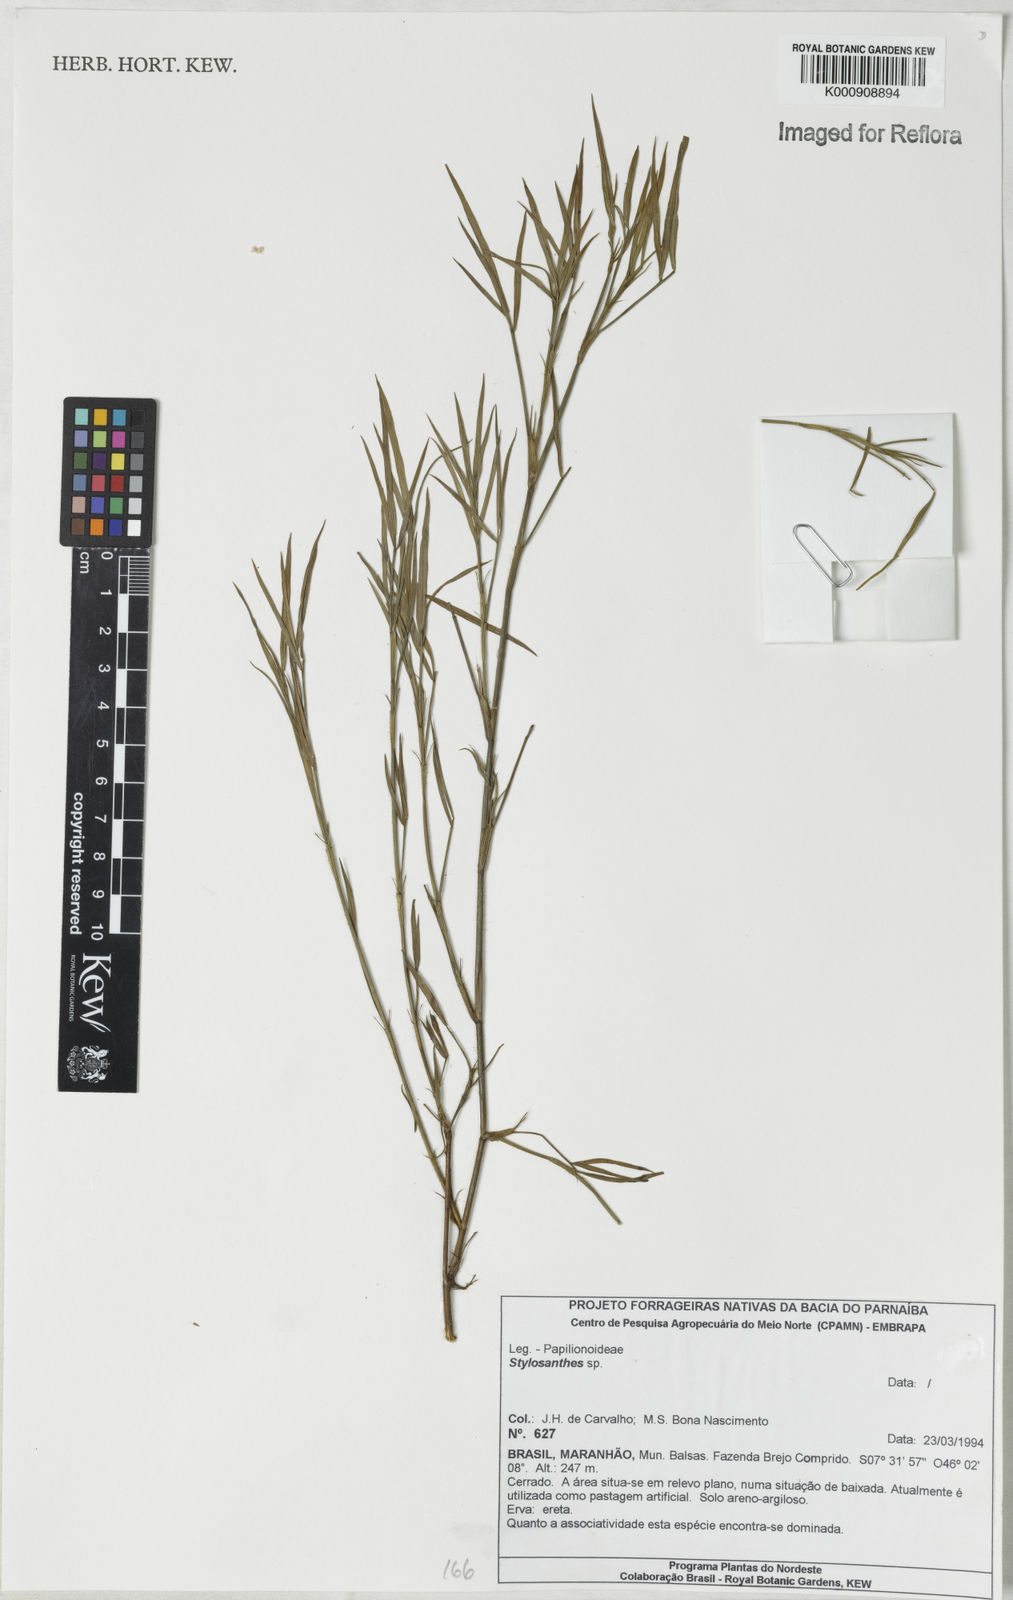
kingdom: Plantae
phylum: Tracheophyta
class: Magnoliopsida
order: Fabales
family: Fabaceae
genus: Stylosanthes
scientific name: Stylosanthes
